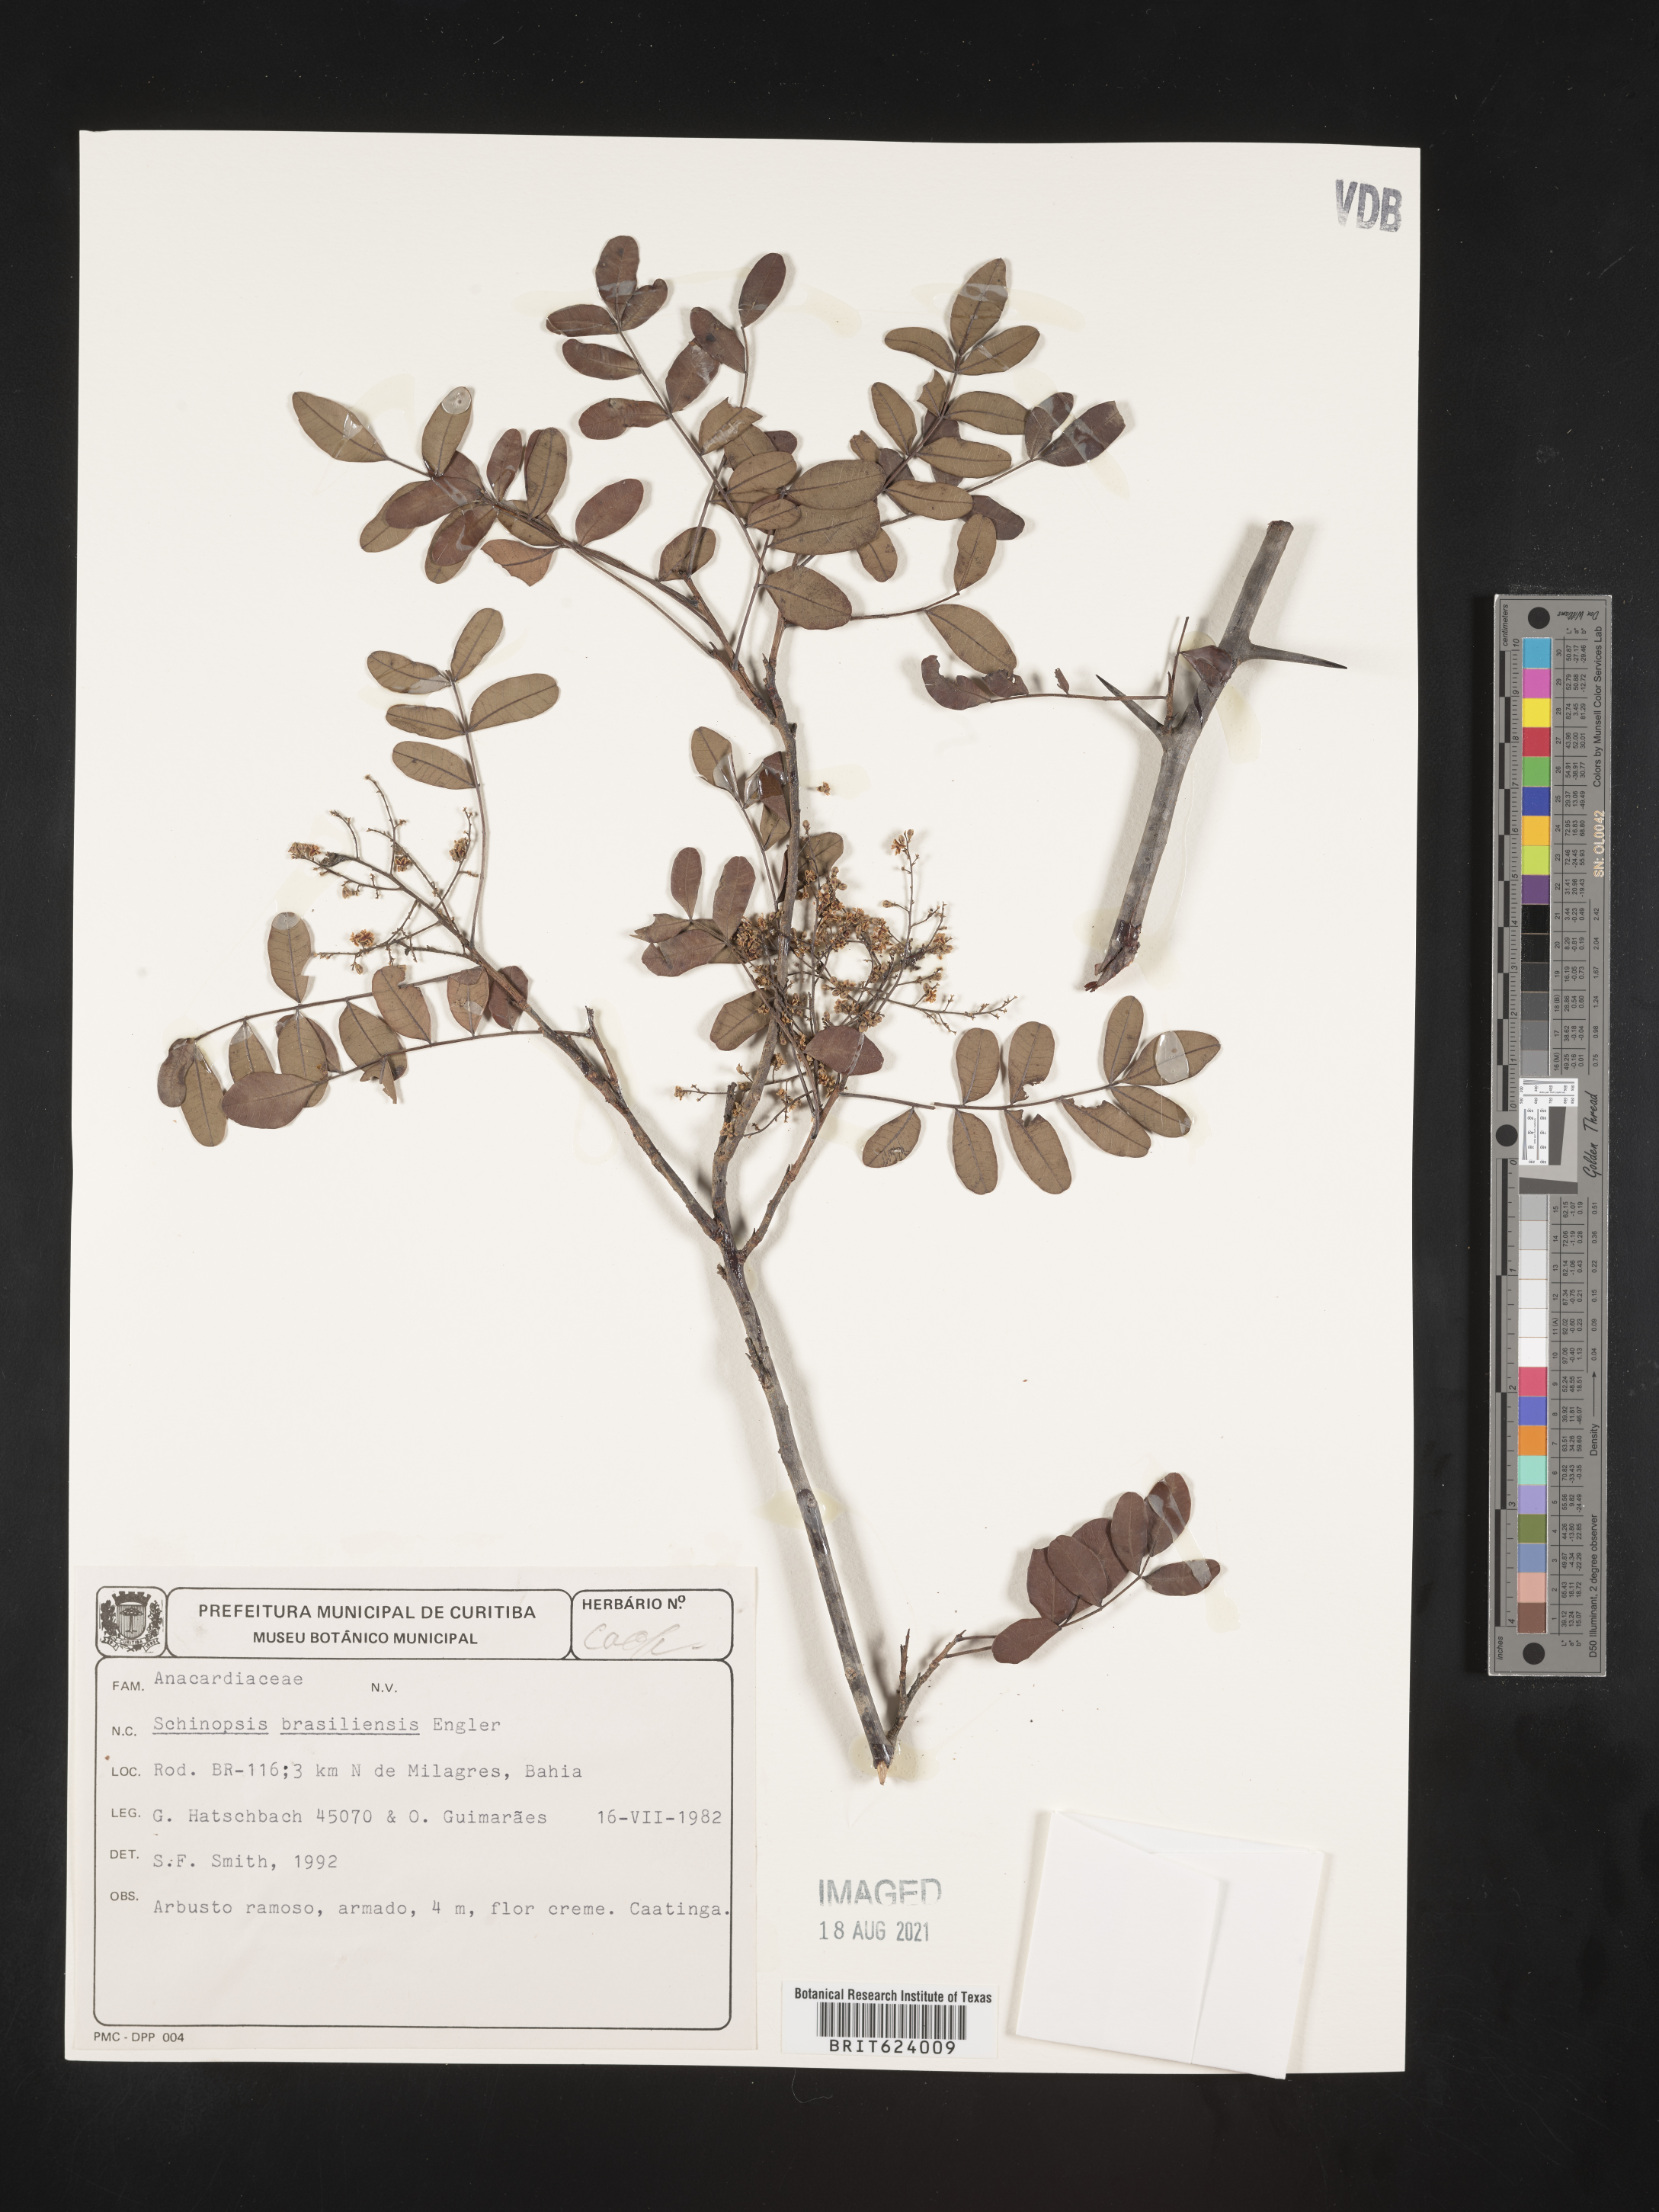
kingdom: Plantae
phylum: Tracheophyta
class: Magnoliopsida
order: Sapindales
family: Anacardiaceae
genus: Schinopsis
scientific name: Schinopsis brasiliensis
